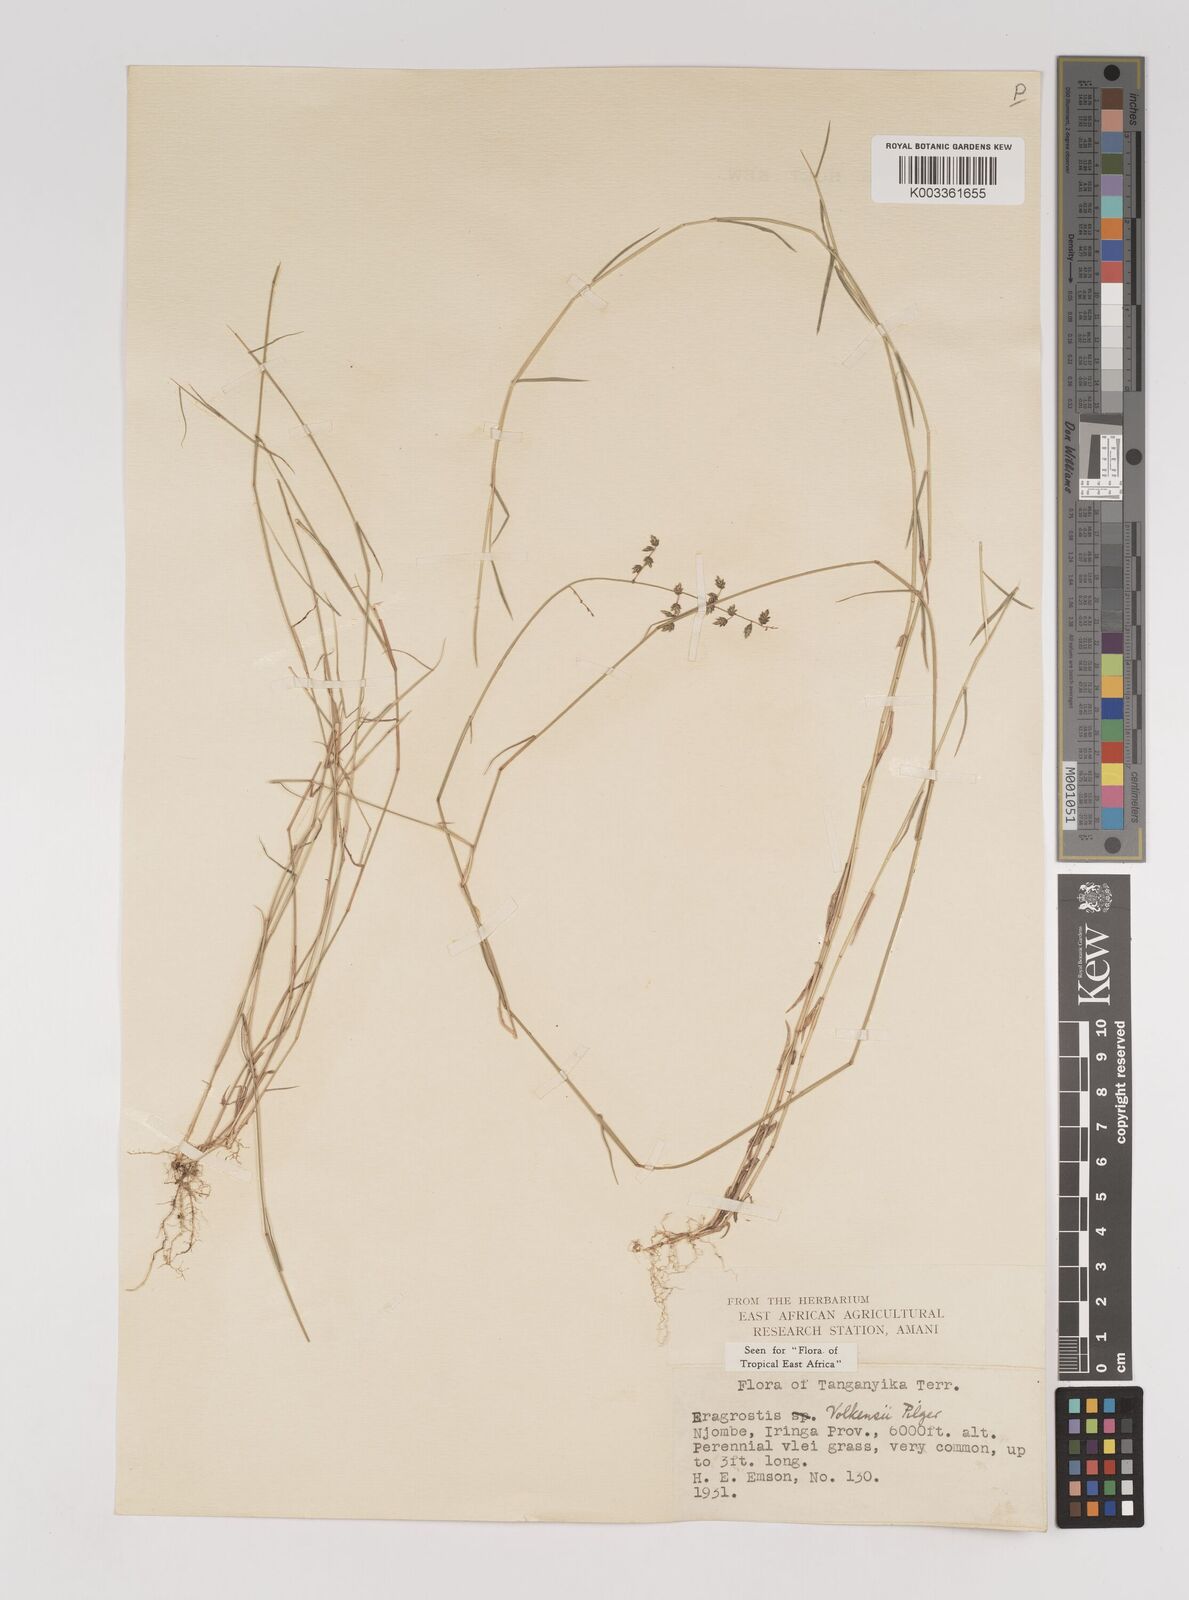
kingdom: Plantae
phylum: Tracheophyta
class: Liliopsida
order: Poales
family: Poaceae
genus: Eragrostis
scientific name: Eragrostis volkensii
